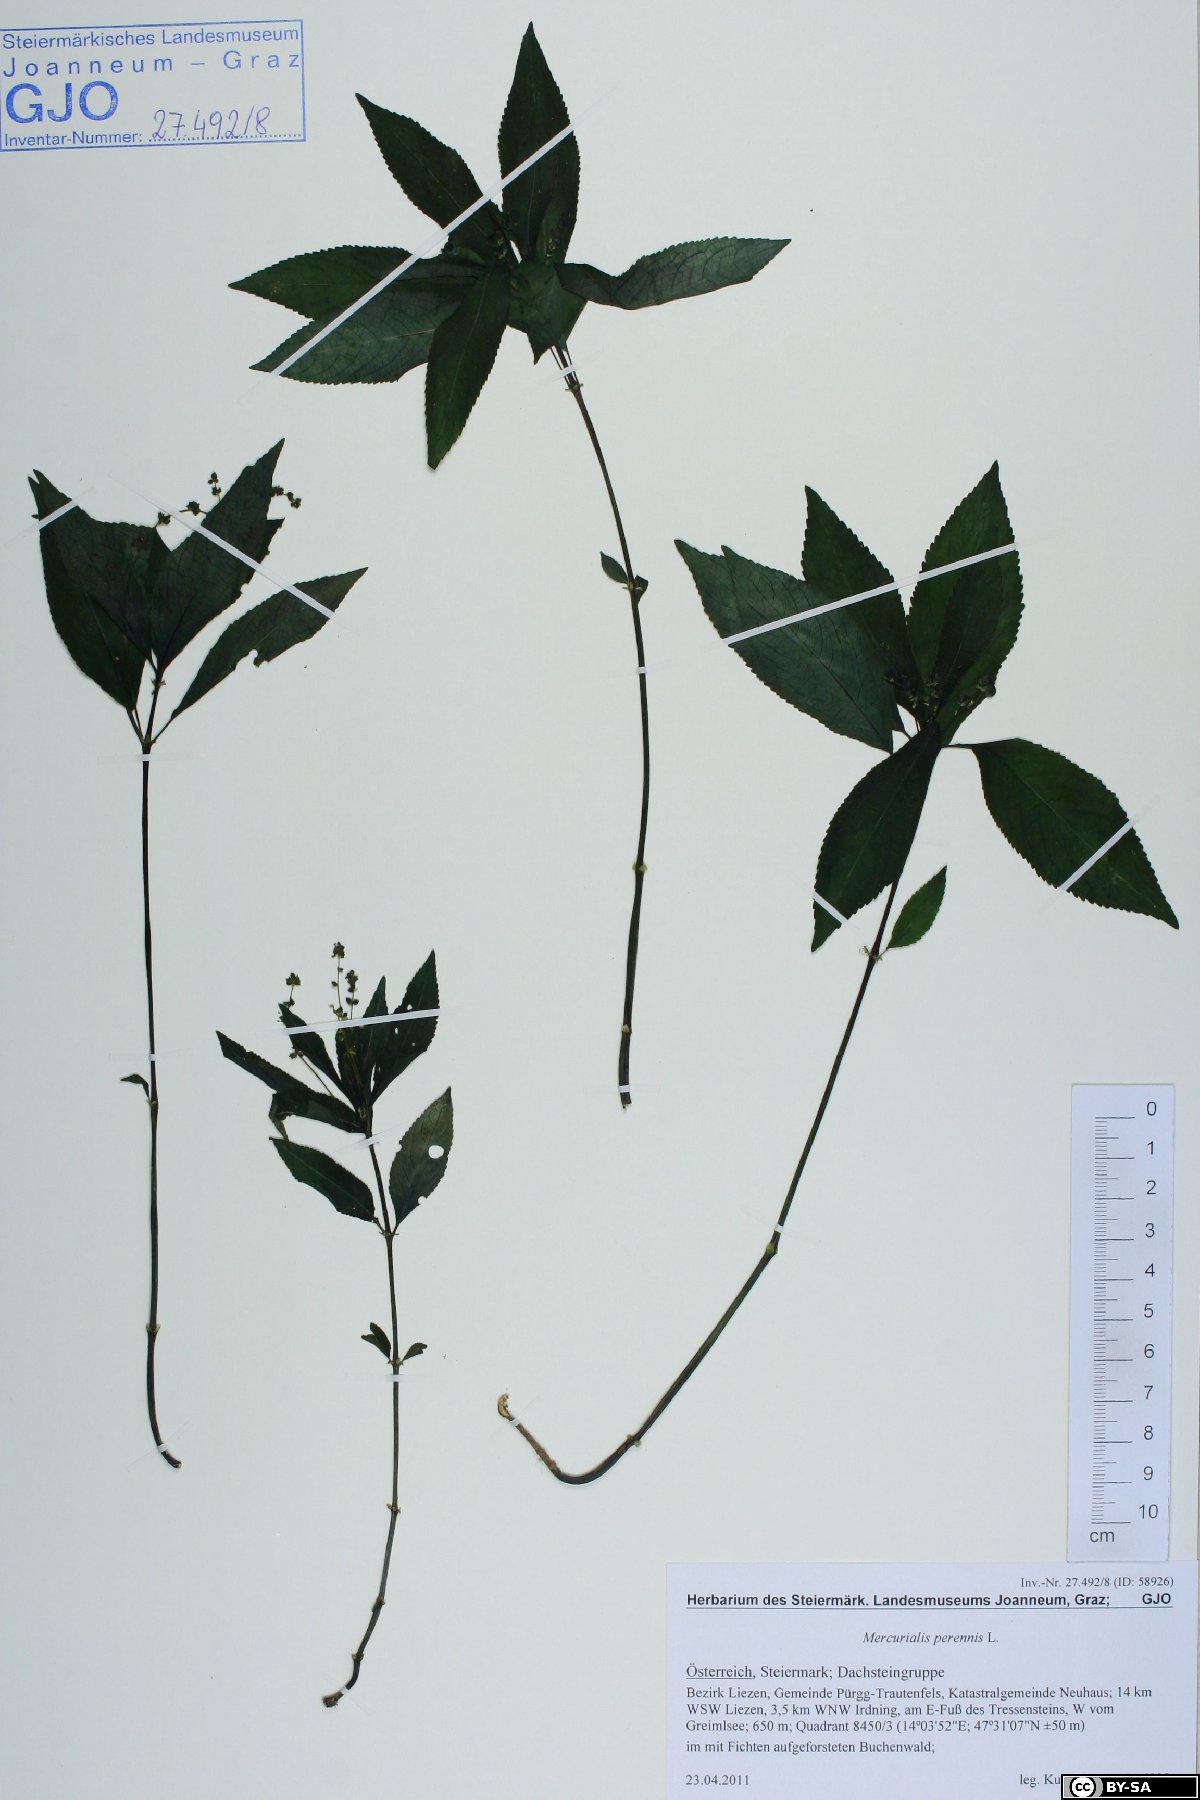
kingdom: Plantae
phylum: Tracheophyta
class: Magnoliopsida
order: Malpighiales
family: Euphorbiaceae
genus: Mercurialis
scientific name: Mercurialis perennis
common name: Dog mercury
